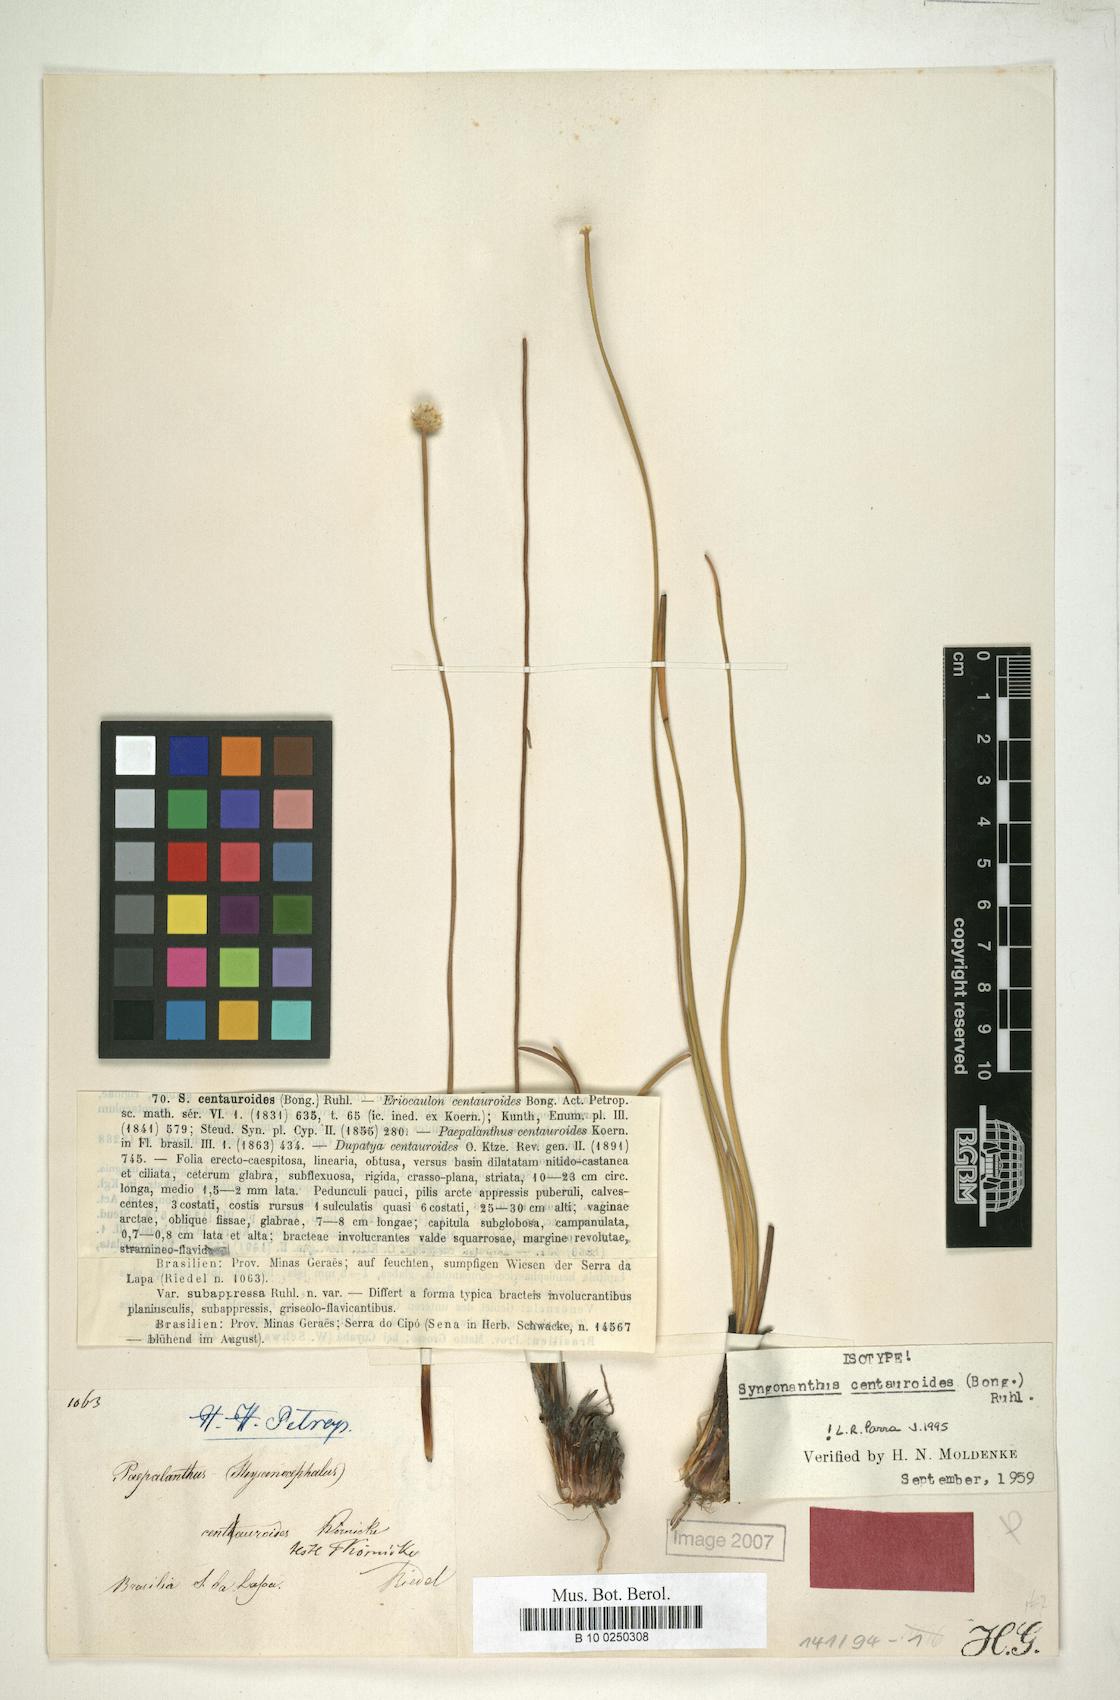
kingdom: Plantae
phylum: Tracheophyta
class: Liliopsida
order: Poales
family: Eriocaulaceae
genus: Comanthera
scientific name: Comanthera centauroides
